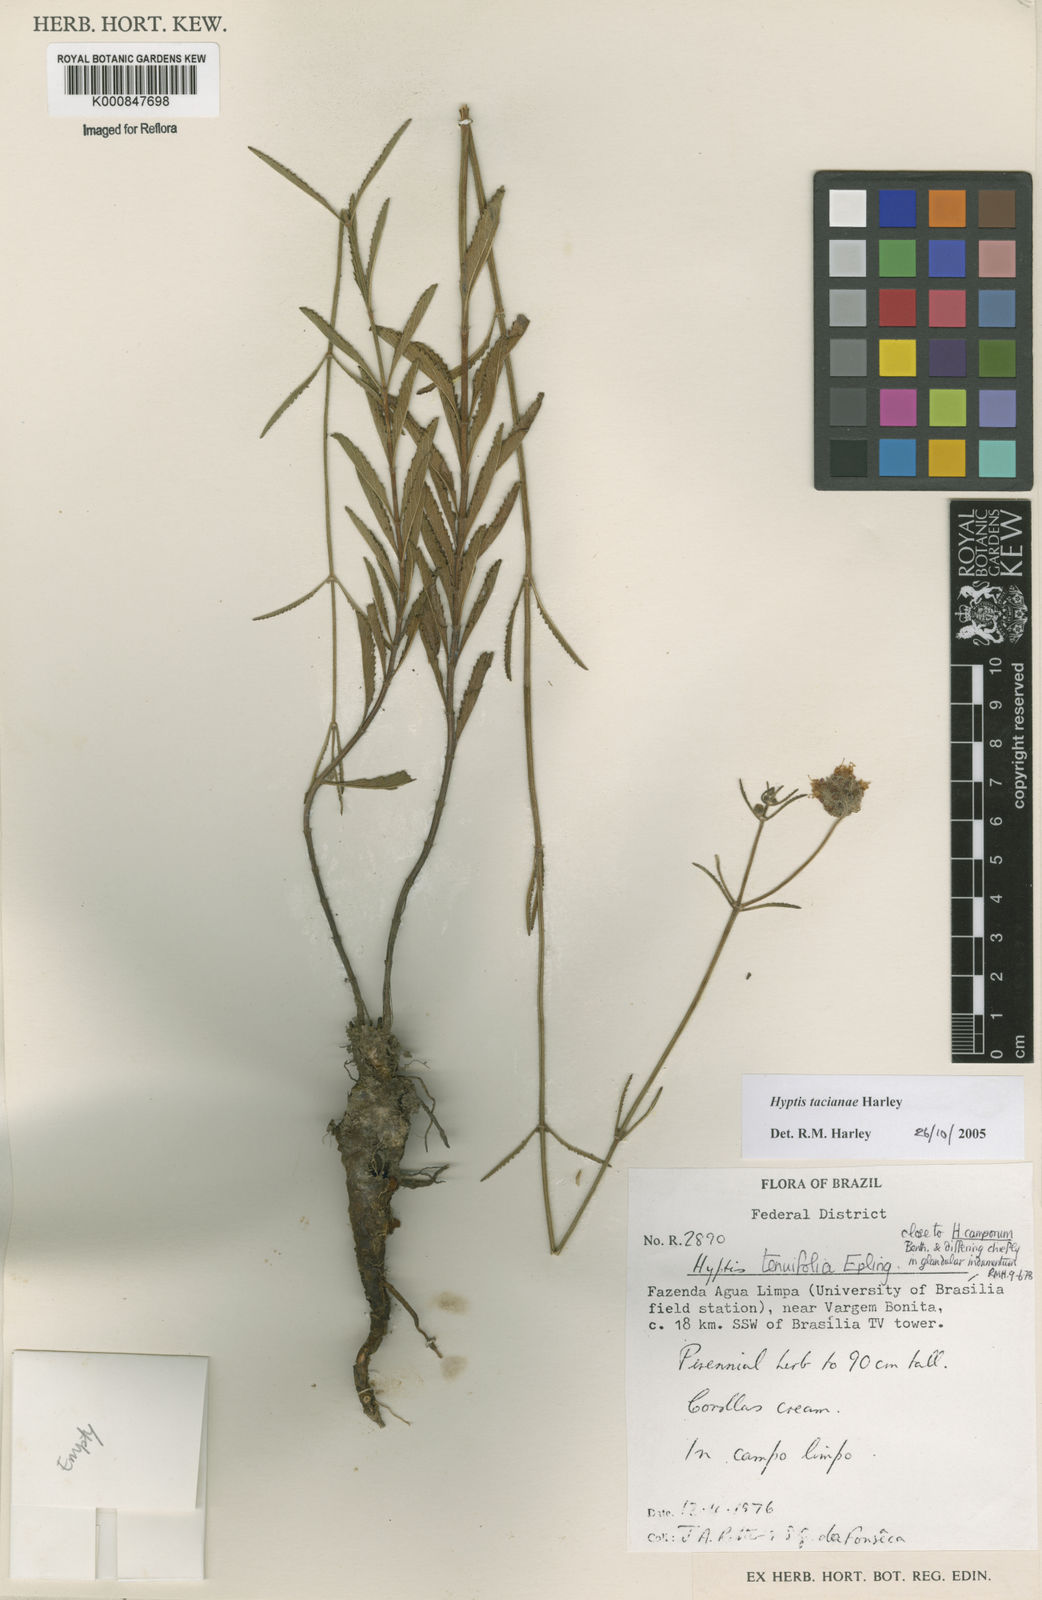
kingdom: Plantae
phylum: Tracheophyta
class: Magnoliopsida
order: Lamiales
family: Lamiaceae
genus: Cyanocephalus
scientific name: Cyanocephalus tacianae
